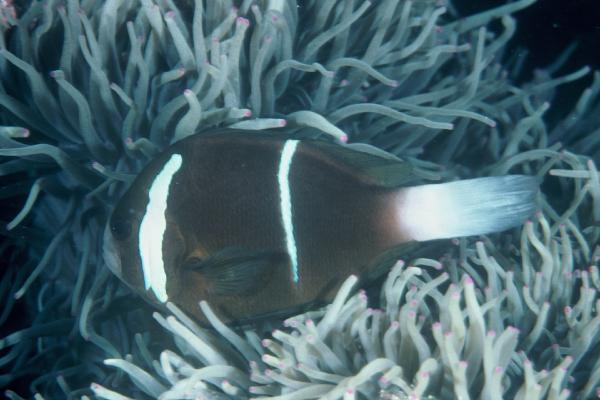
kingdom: Animalia
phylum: Chordata
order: Perciformes
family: Pomacentridae
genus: Amphiprion
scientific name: Amphiprion akindynos
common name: Barrier reef anemonefish
